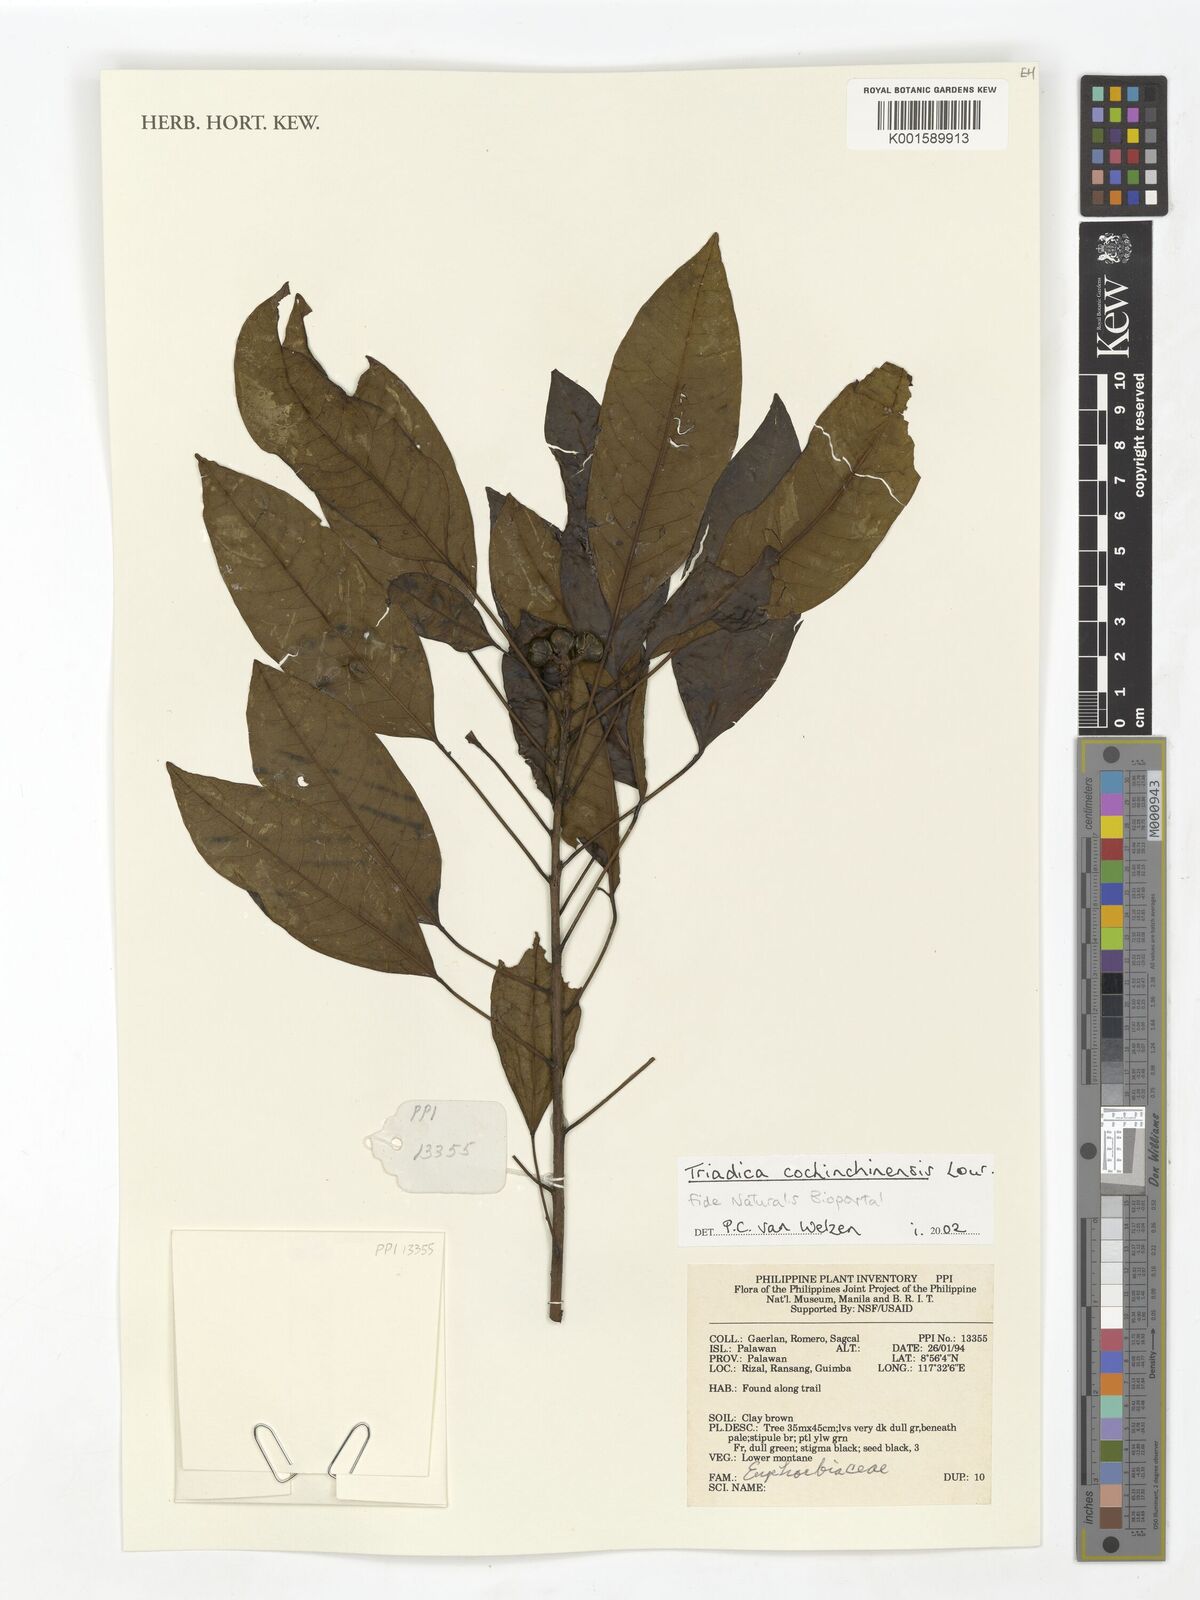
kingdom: Plantae
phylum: Tracheophyta
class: Magnoliopsida
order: Malpighiales
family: Euphorbiaceae
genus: Triadica
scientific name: Triadica cochinchinensis
